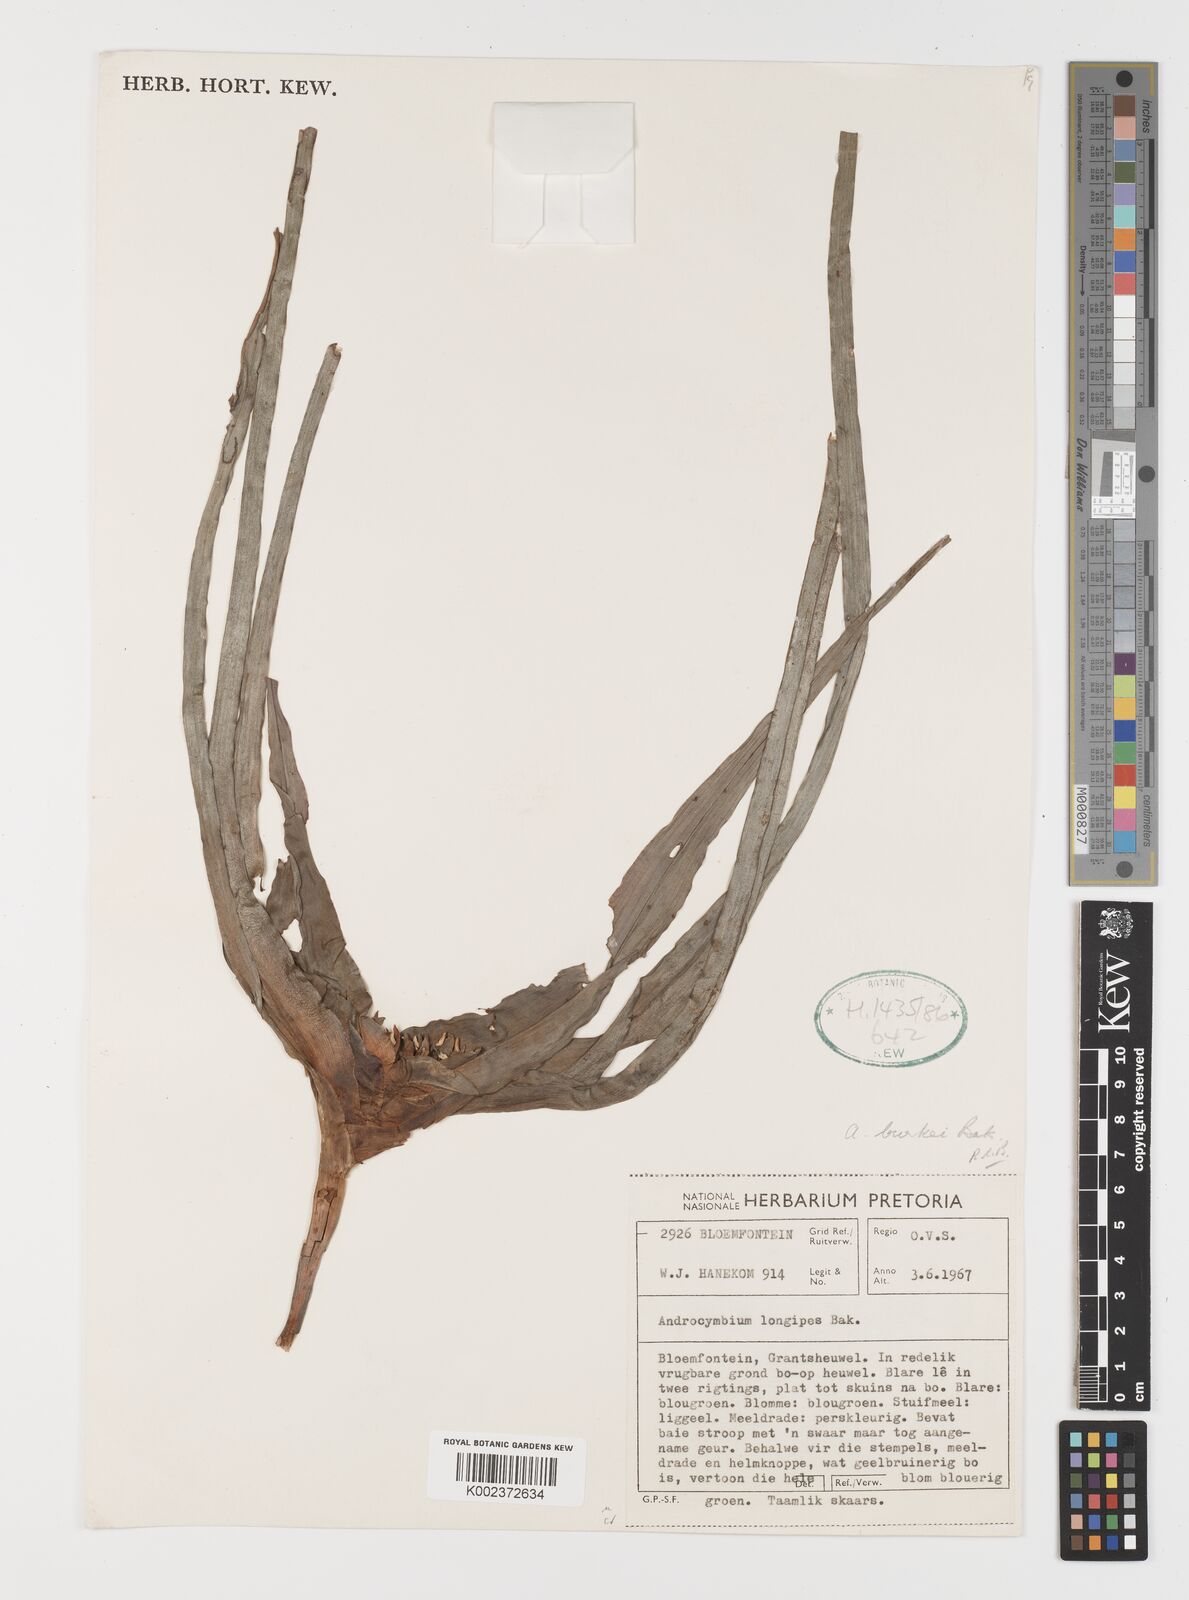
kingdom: Plantae
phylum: Tracheophyta
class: Liliopsida
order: Liliales
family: Colchicaceae
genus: Colchicum
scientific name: Colchicum burkei
